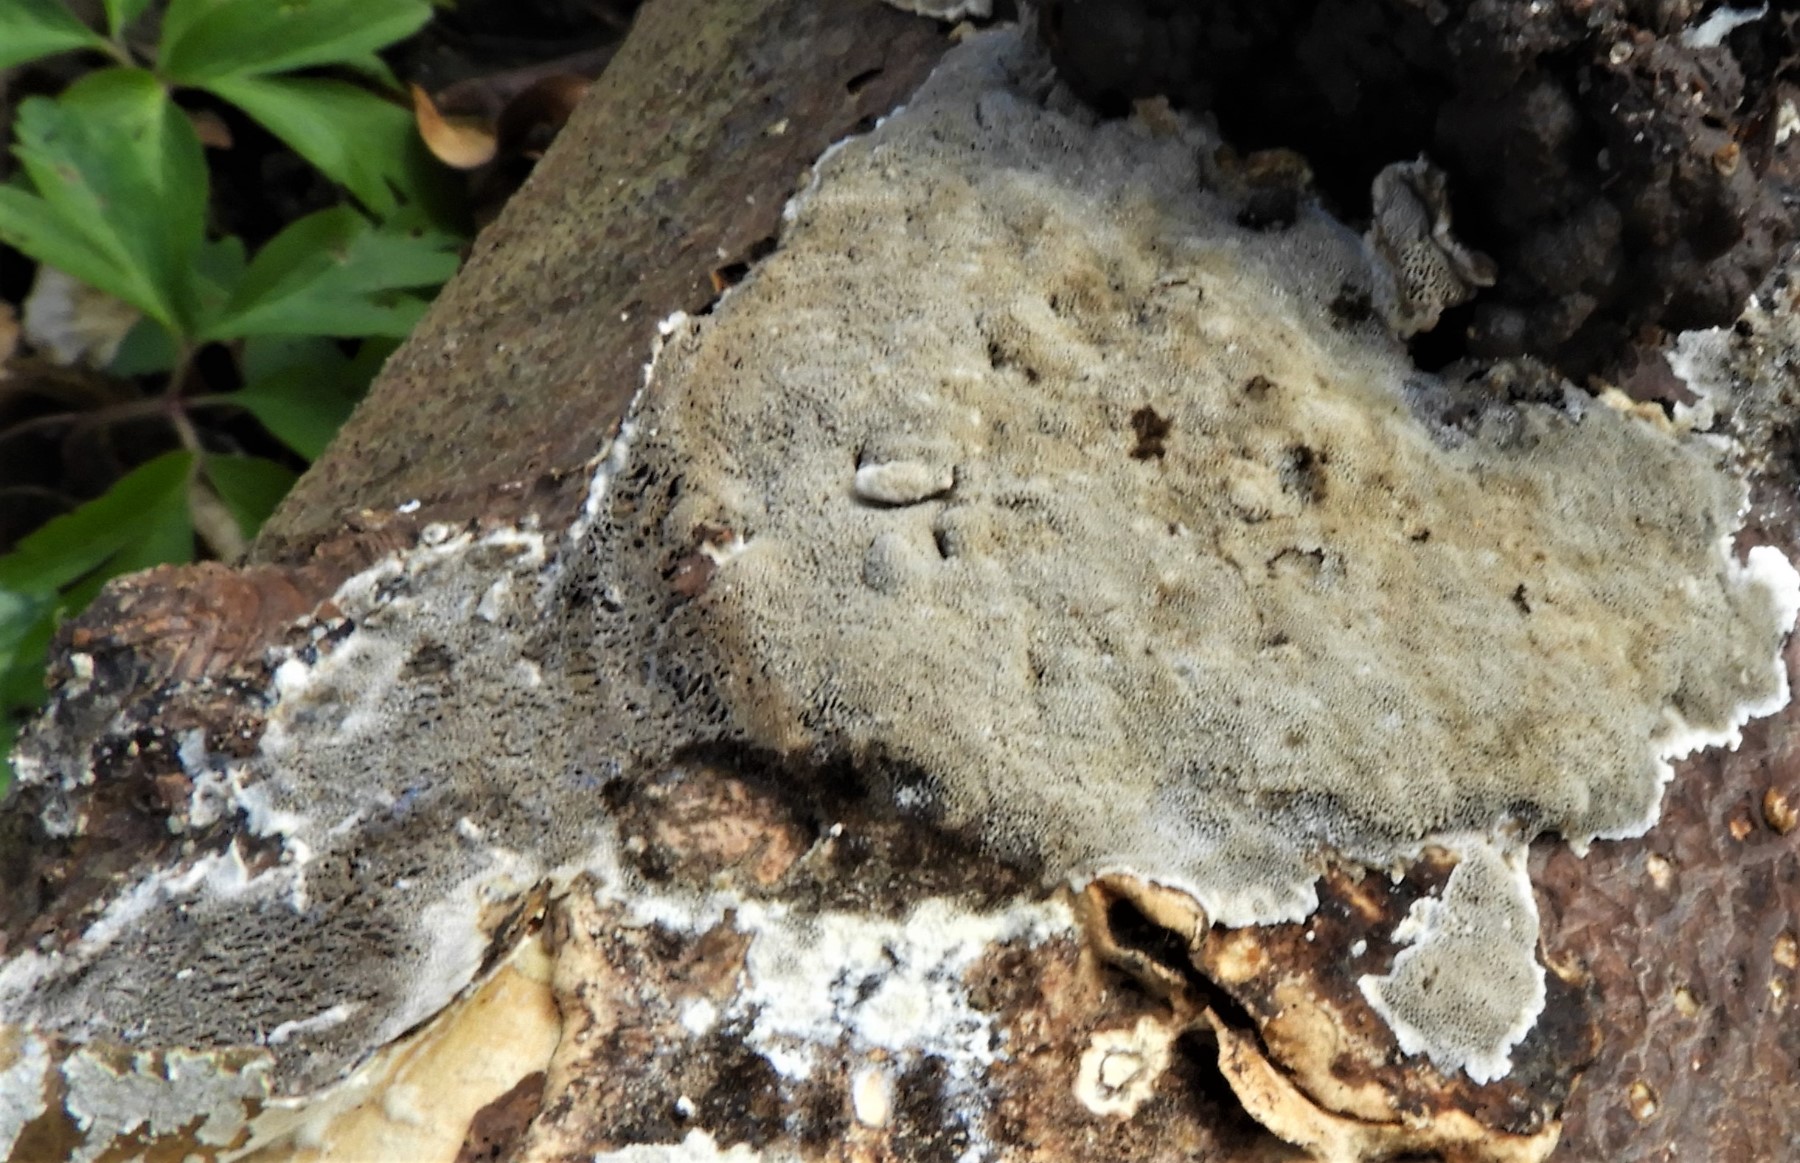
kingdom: Fungi
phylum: Basidiomycota
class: Agaricomycetes
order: Polyporales
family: Phanerochaetaceae
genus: Bjerkandera
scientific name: Bjerkandera adusta
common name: sveden sodporesvamp
